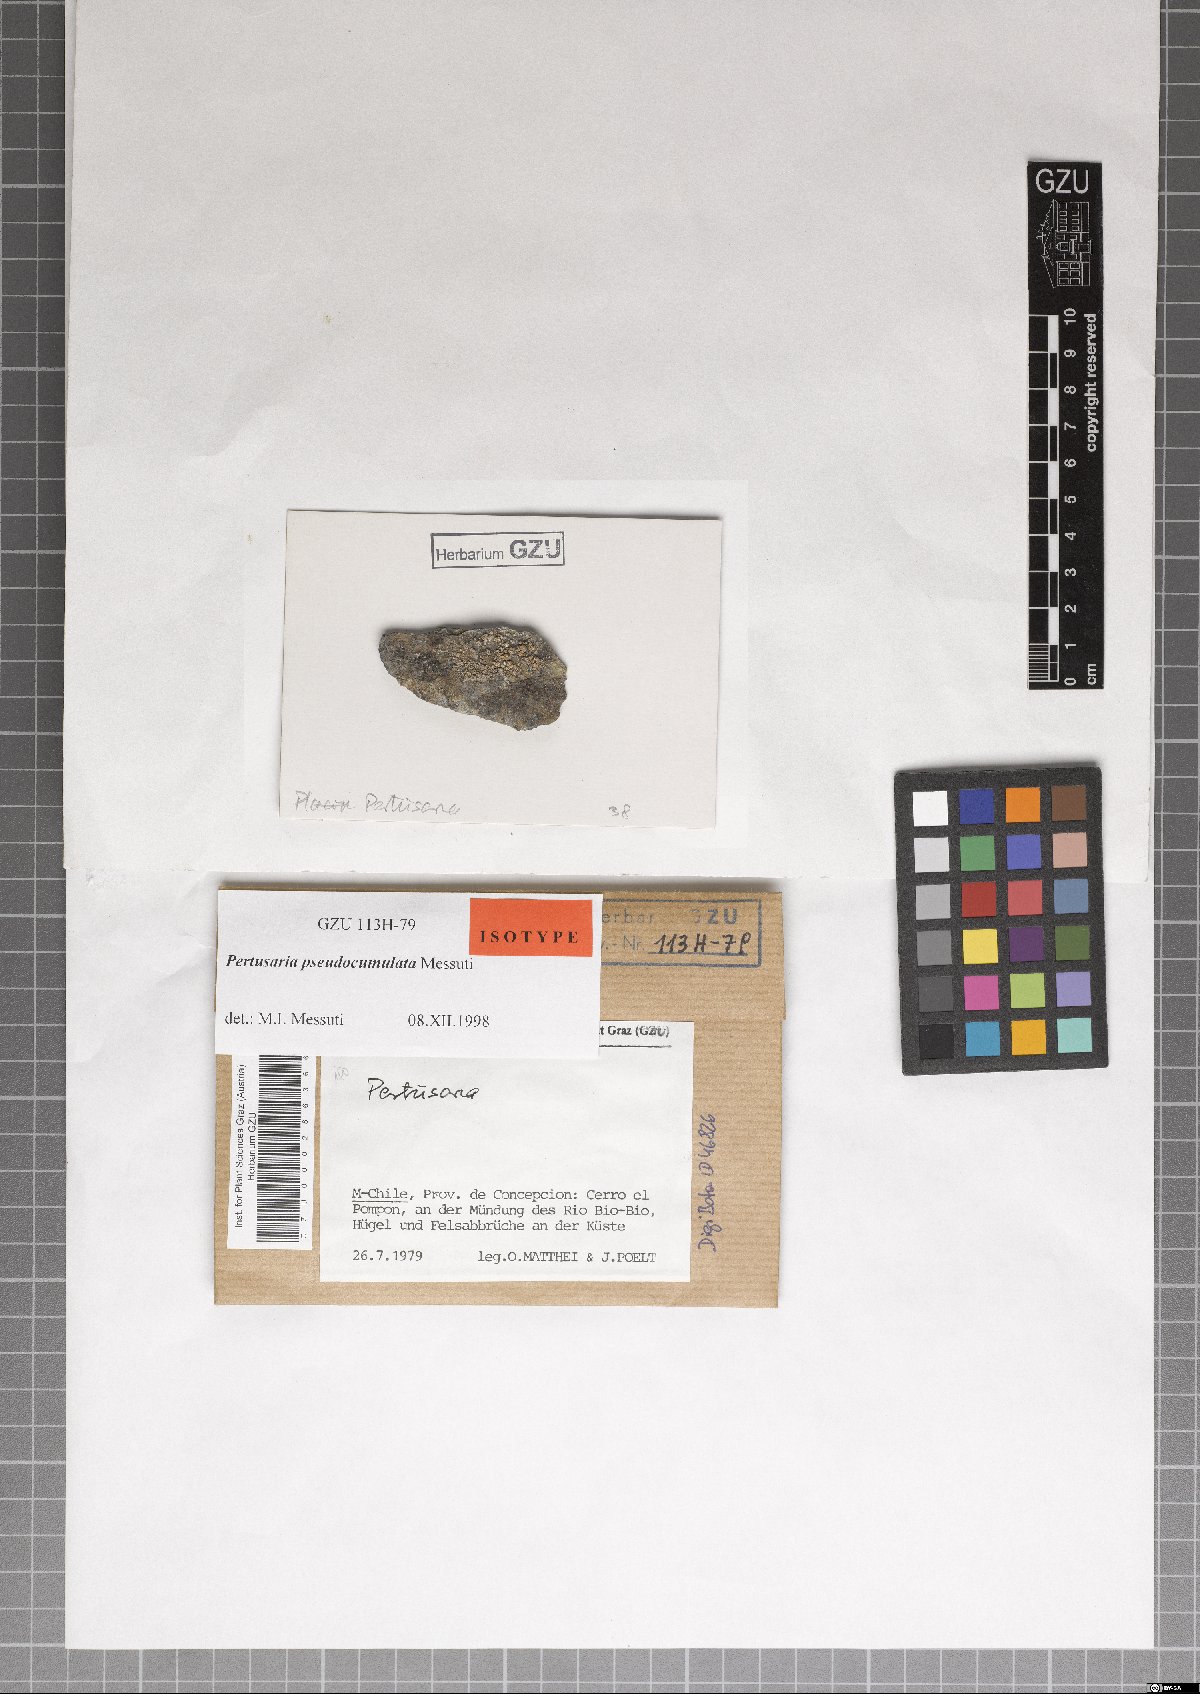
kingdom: Fungi
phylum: Ascomycota
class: Lecanoromycetes
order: Pertusariales
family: Pertusariaceae
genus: Pertusaria
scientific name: Pertusaria pseudoculata
